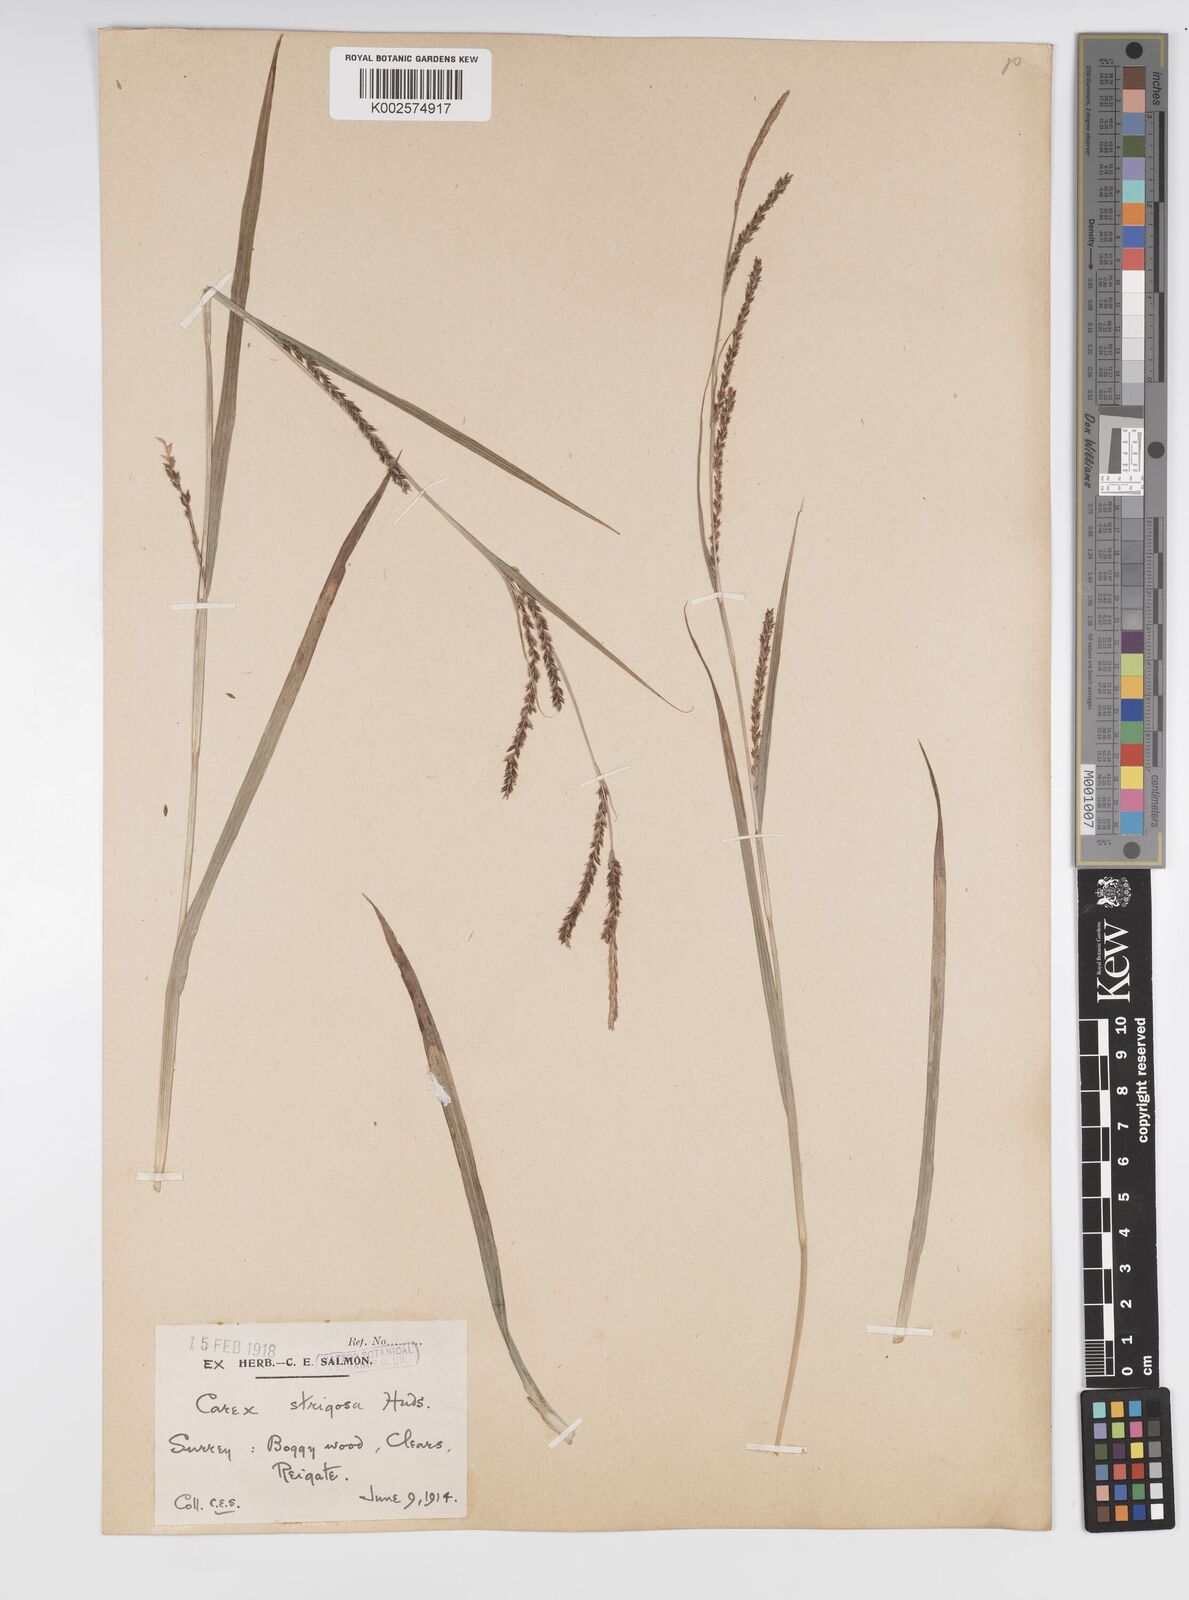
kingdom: Plantae
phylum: Tracheophyta
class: Liliopsida
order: Poales
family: Cyperaceae
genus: Carex
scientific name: Carex strigosa
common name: Thin-spiked wood-sedge
